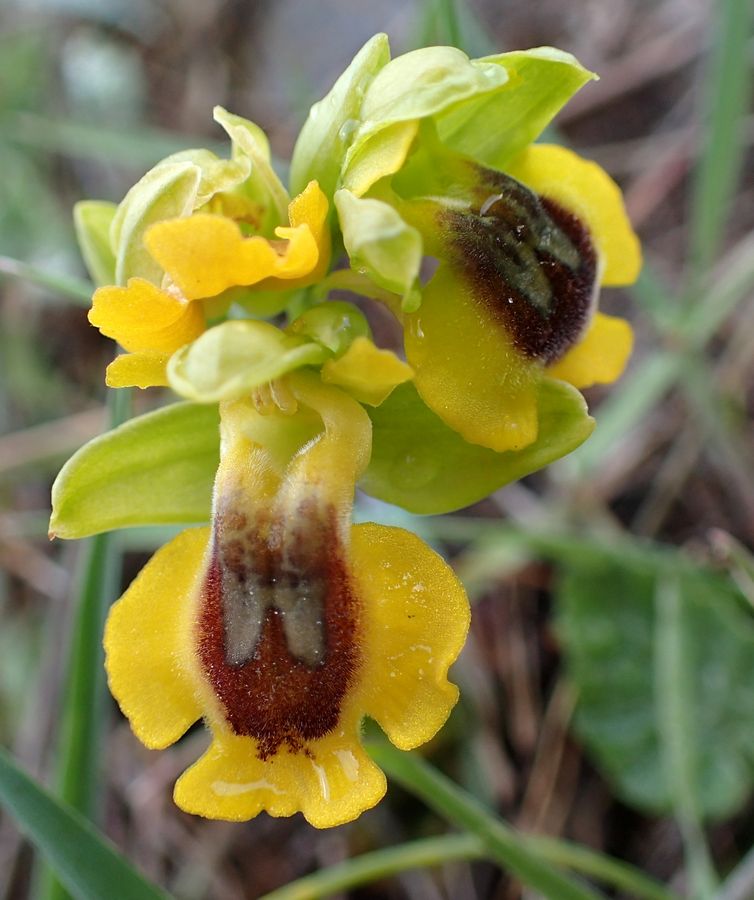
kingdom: Plantae
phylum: Tracheophyta
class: Liliopsida
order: Asparagales
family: Orchidaceae
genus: Ophrys
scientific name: Ophrys lutea
